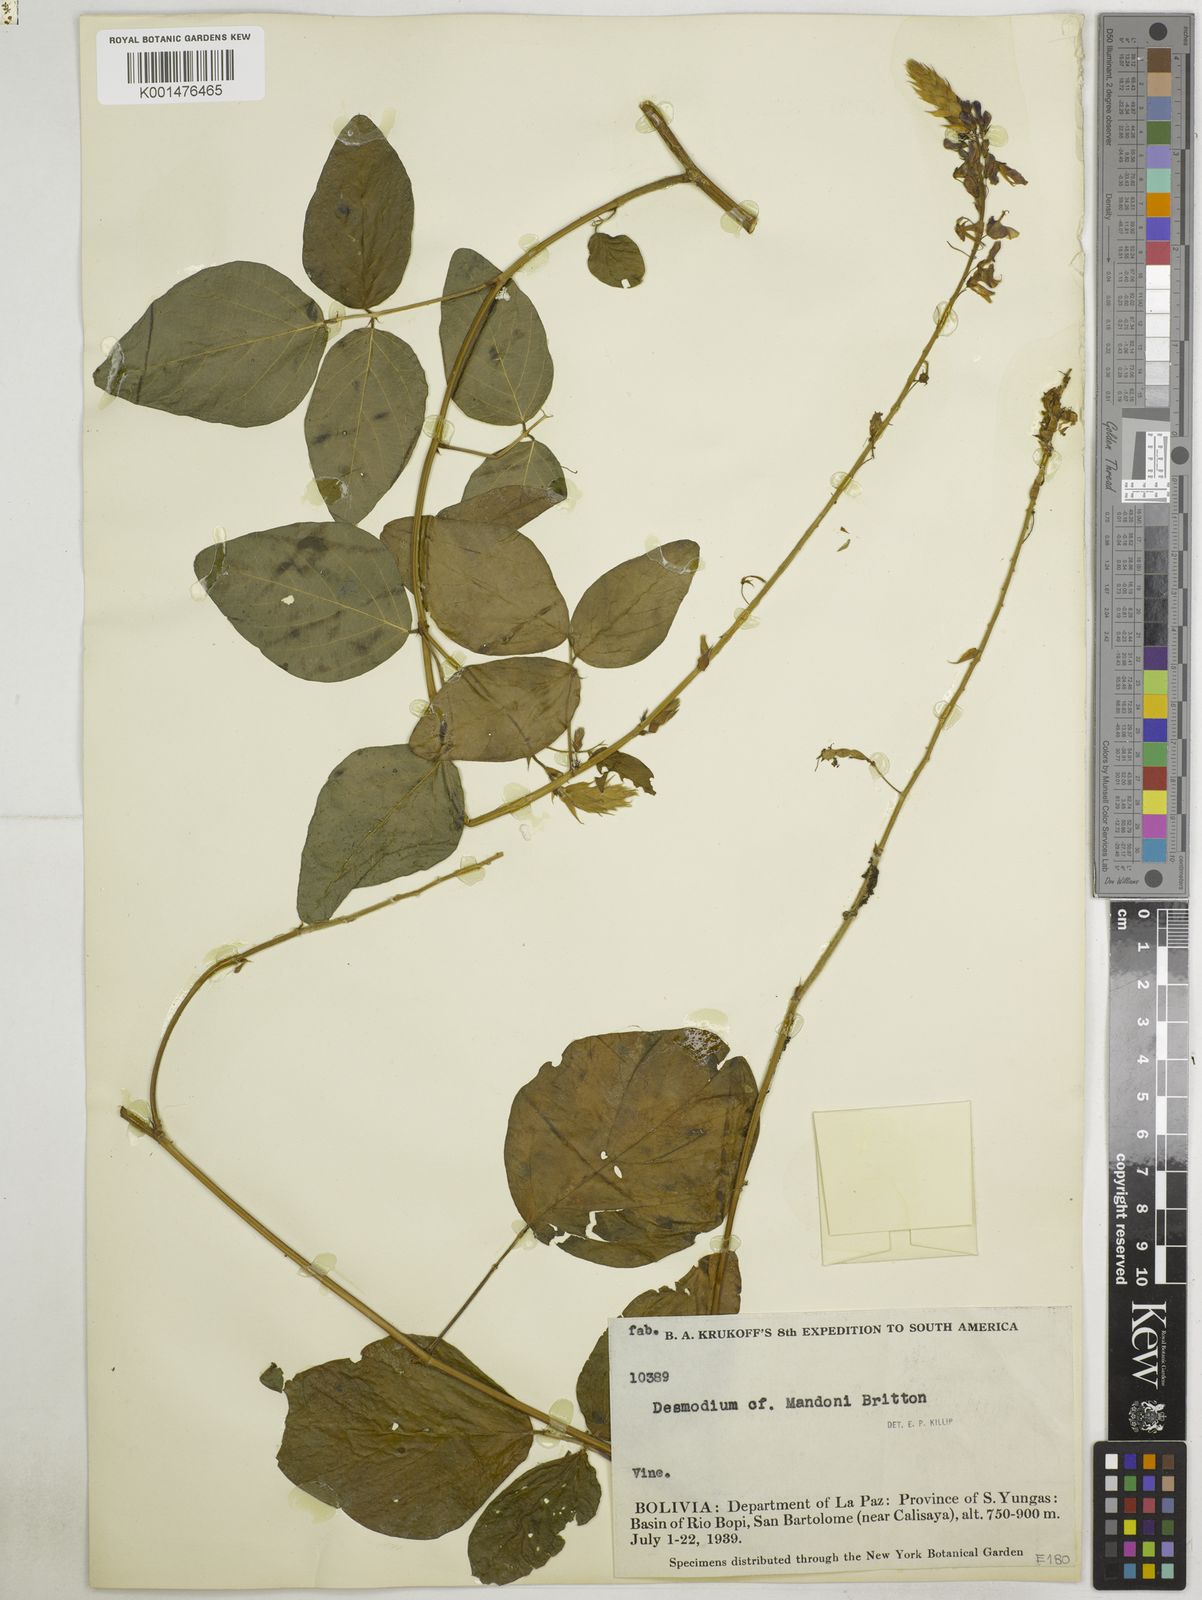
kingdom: Plantae
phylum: Tracheophyta
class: Magnoliopsida
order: Fabales
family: Fabaceae
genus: Desmodium
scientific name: Desmodium limense
